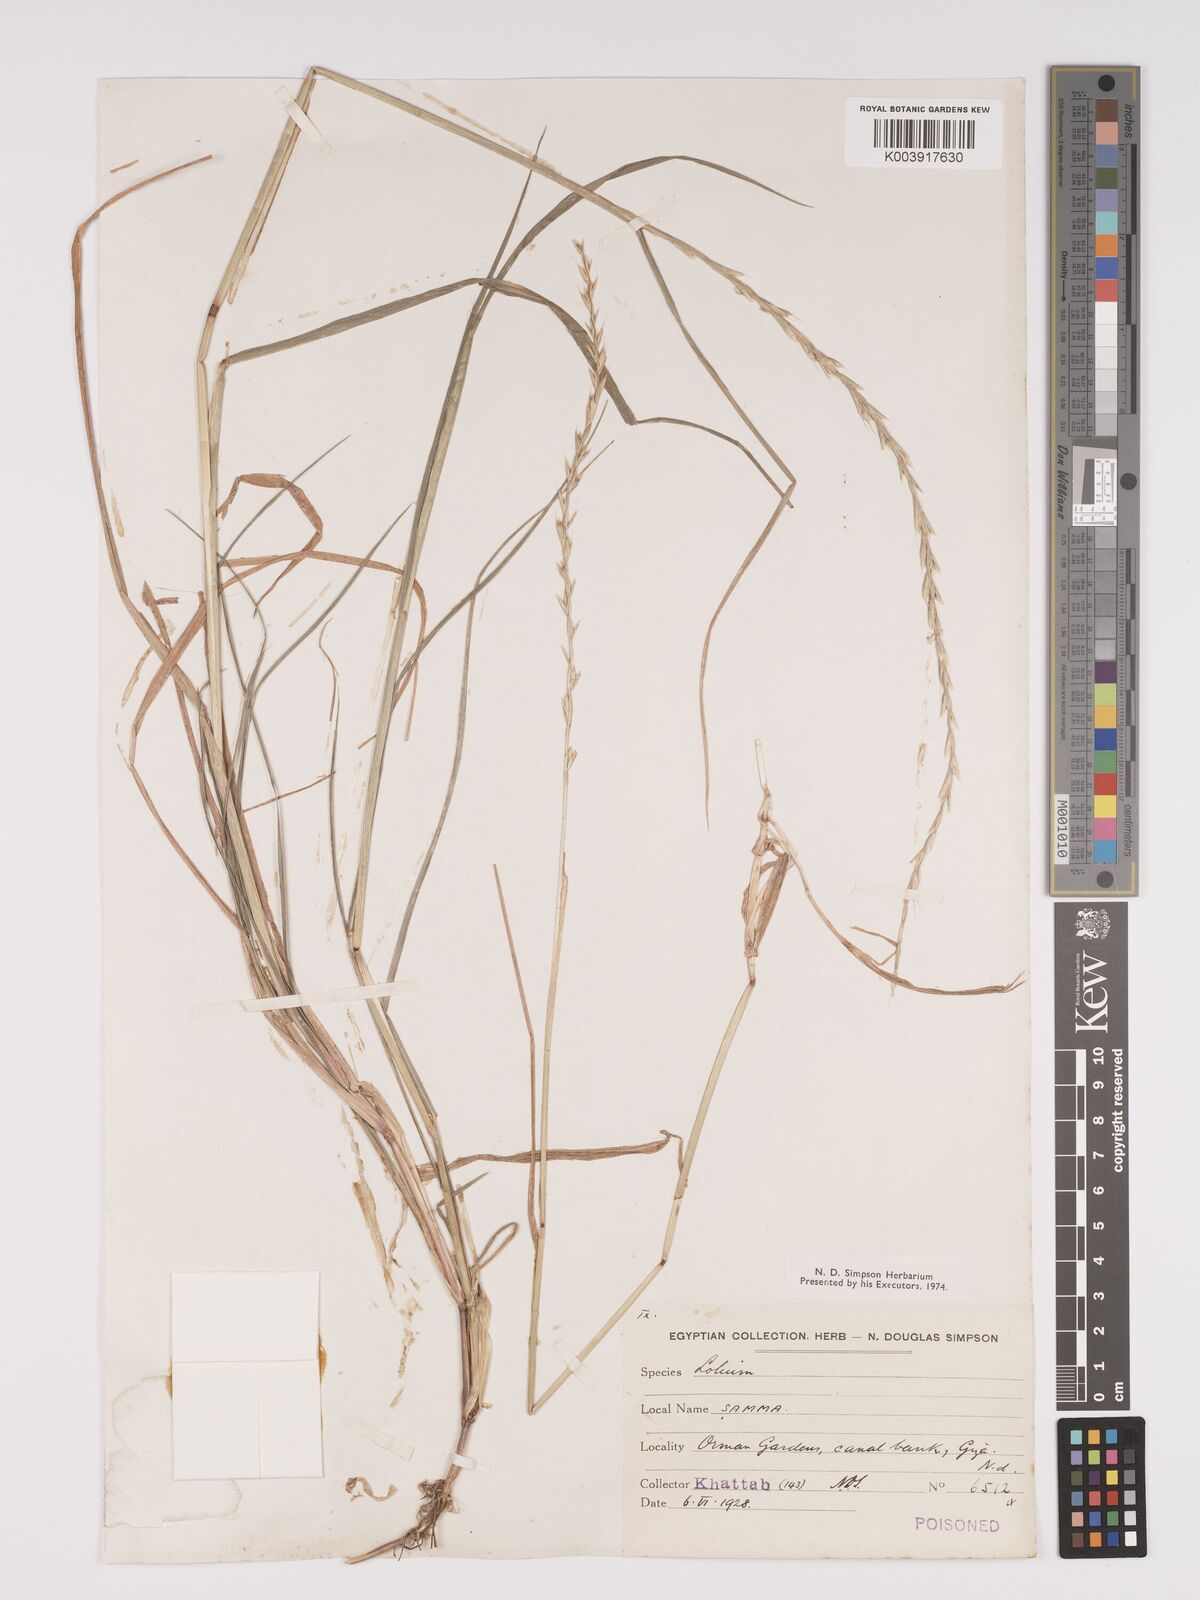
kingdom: Plantae
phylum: Tracheophyta
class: Liliopsida
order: Poales
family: Poaceae
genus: Lolium
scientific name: Lolium
